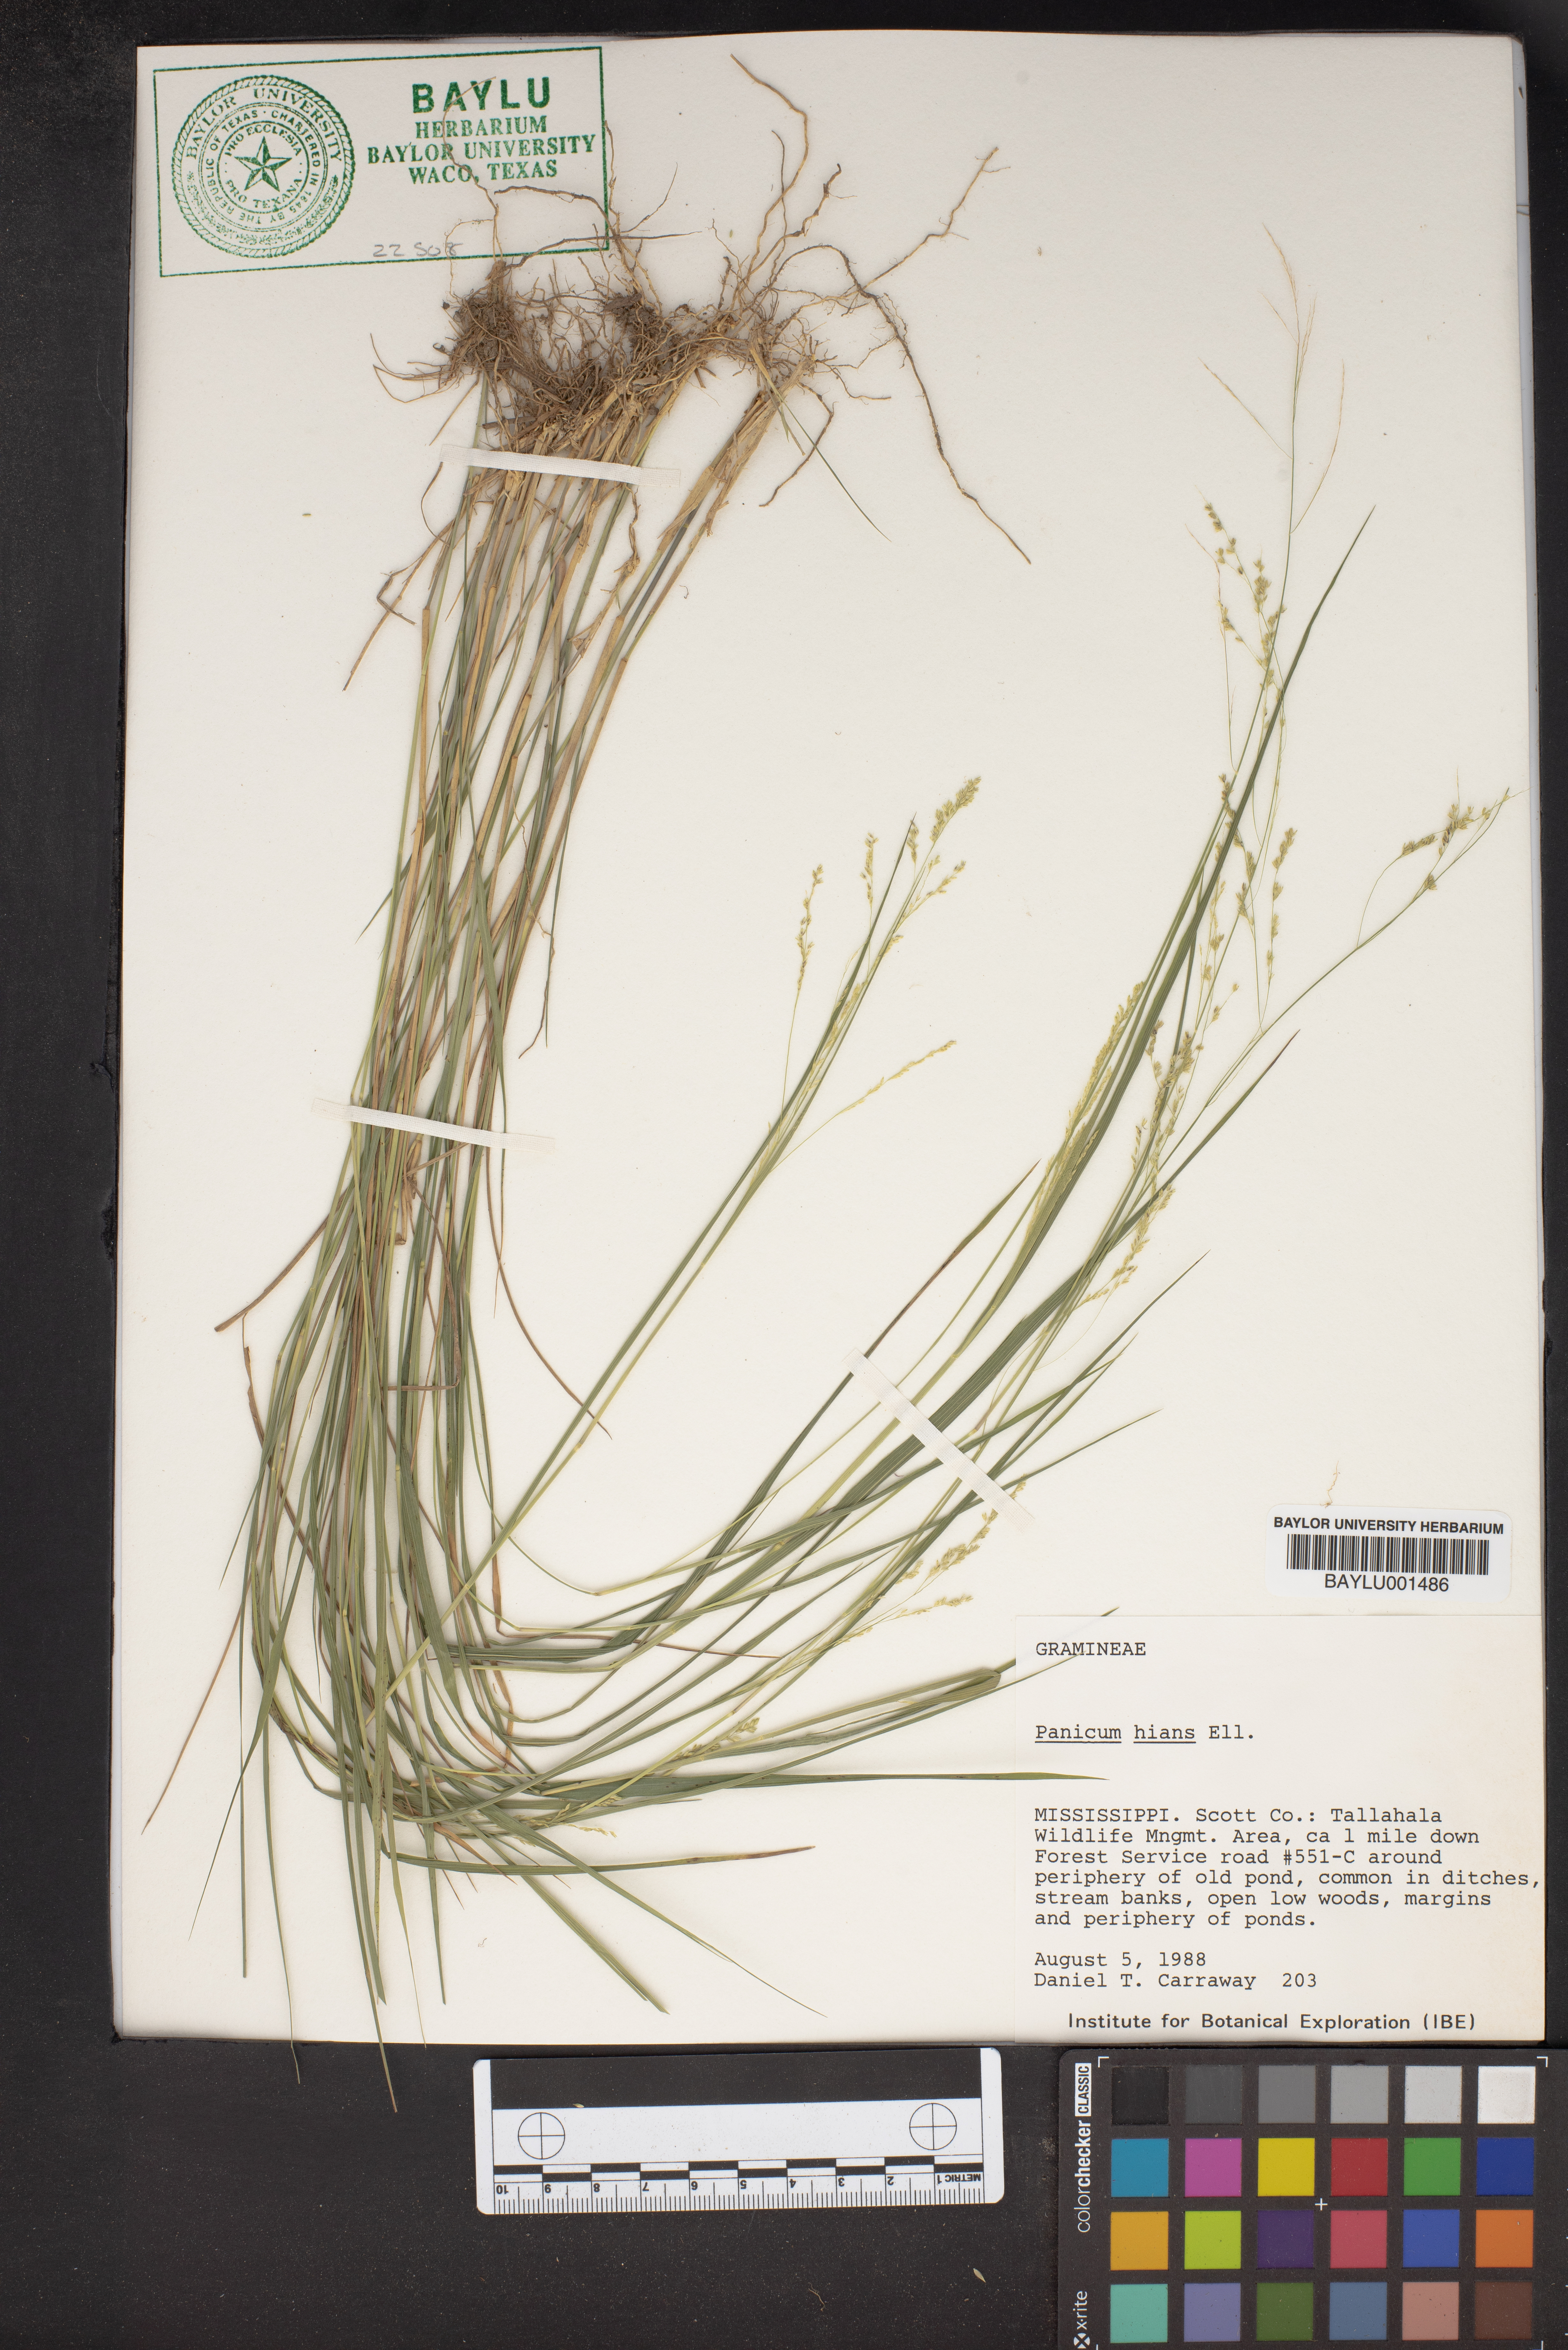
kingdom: Plantae
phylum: Tracheophyta
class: Liliopsida
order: Poales
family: Poaceae
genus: Coleataenia
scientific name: Coleataenia stenodes
